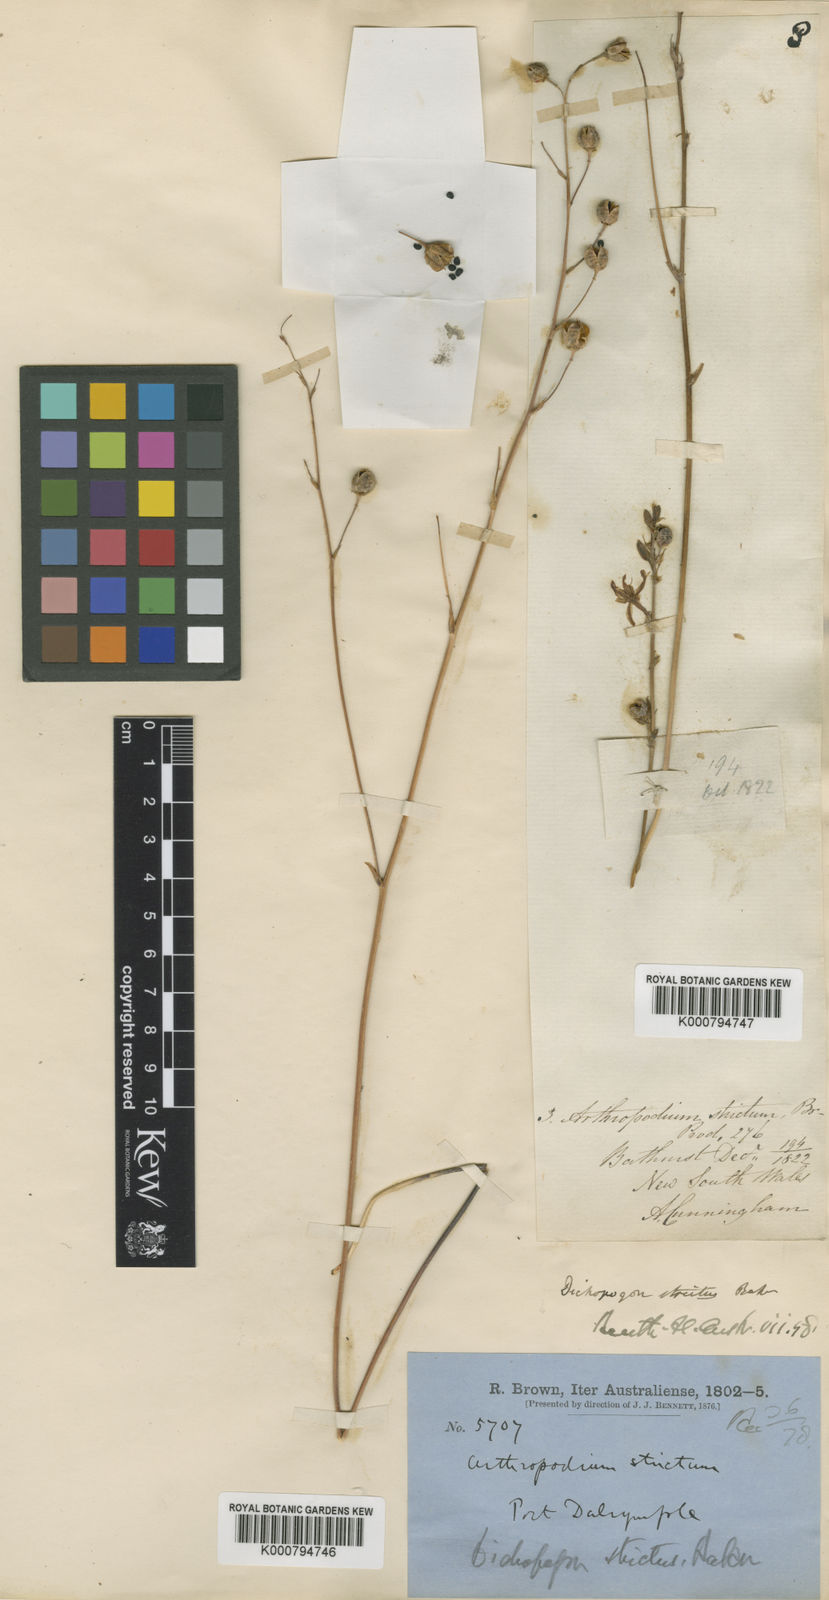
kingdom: Plantae
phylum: Tracheophyta
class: Liliopsida
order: Asparagales
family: Asparagaceae
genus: Arthropodium
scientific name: Arthropodium strictum
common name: Chocolate-lily
